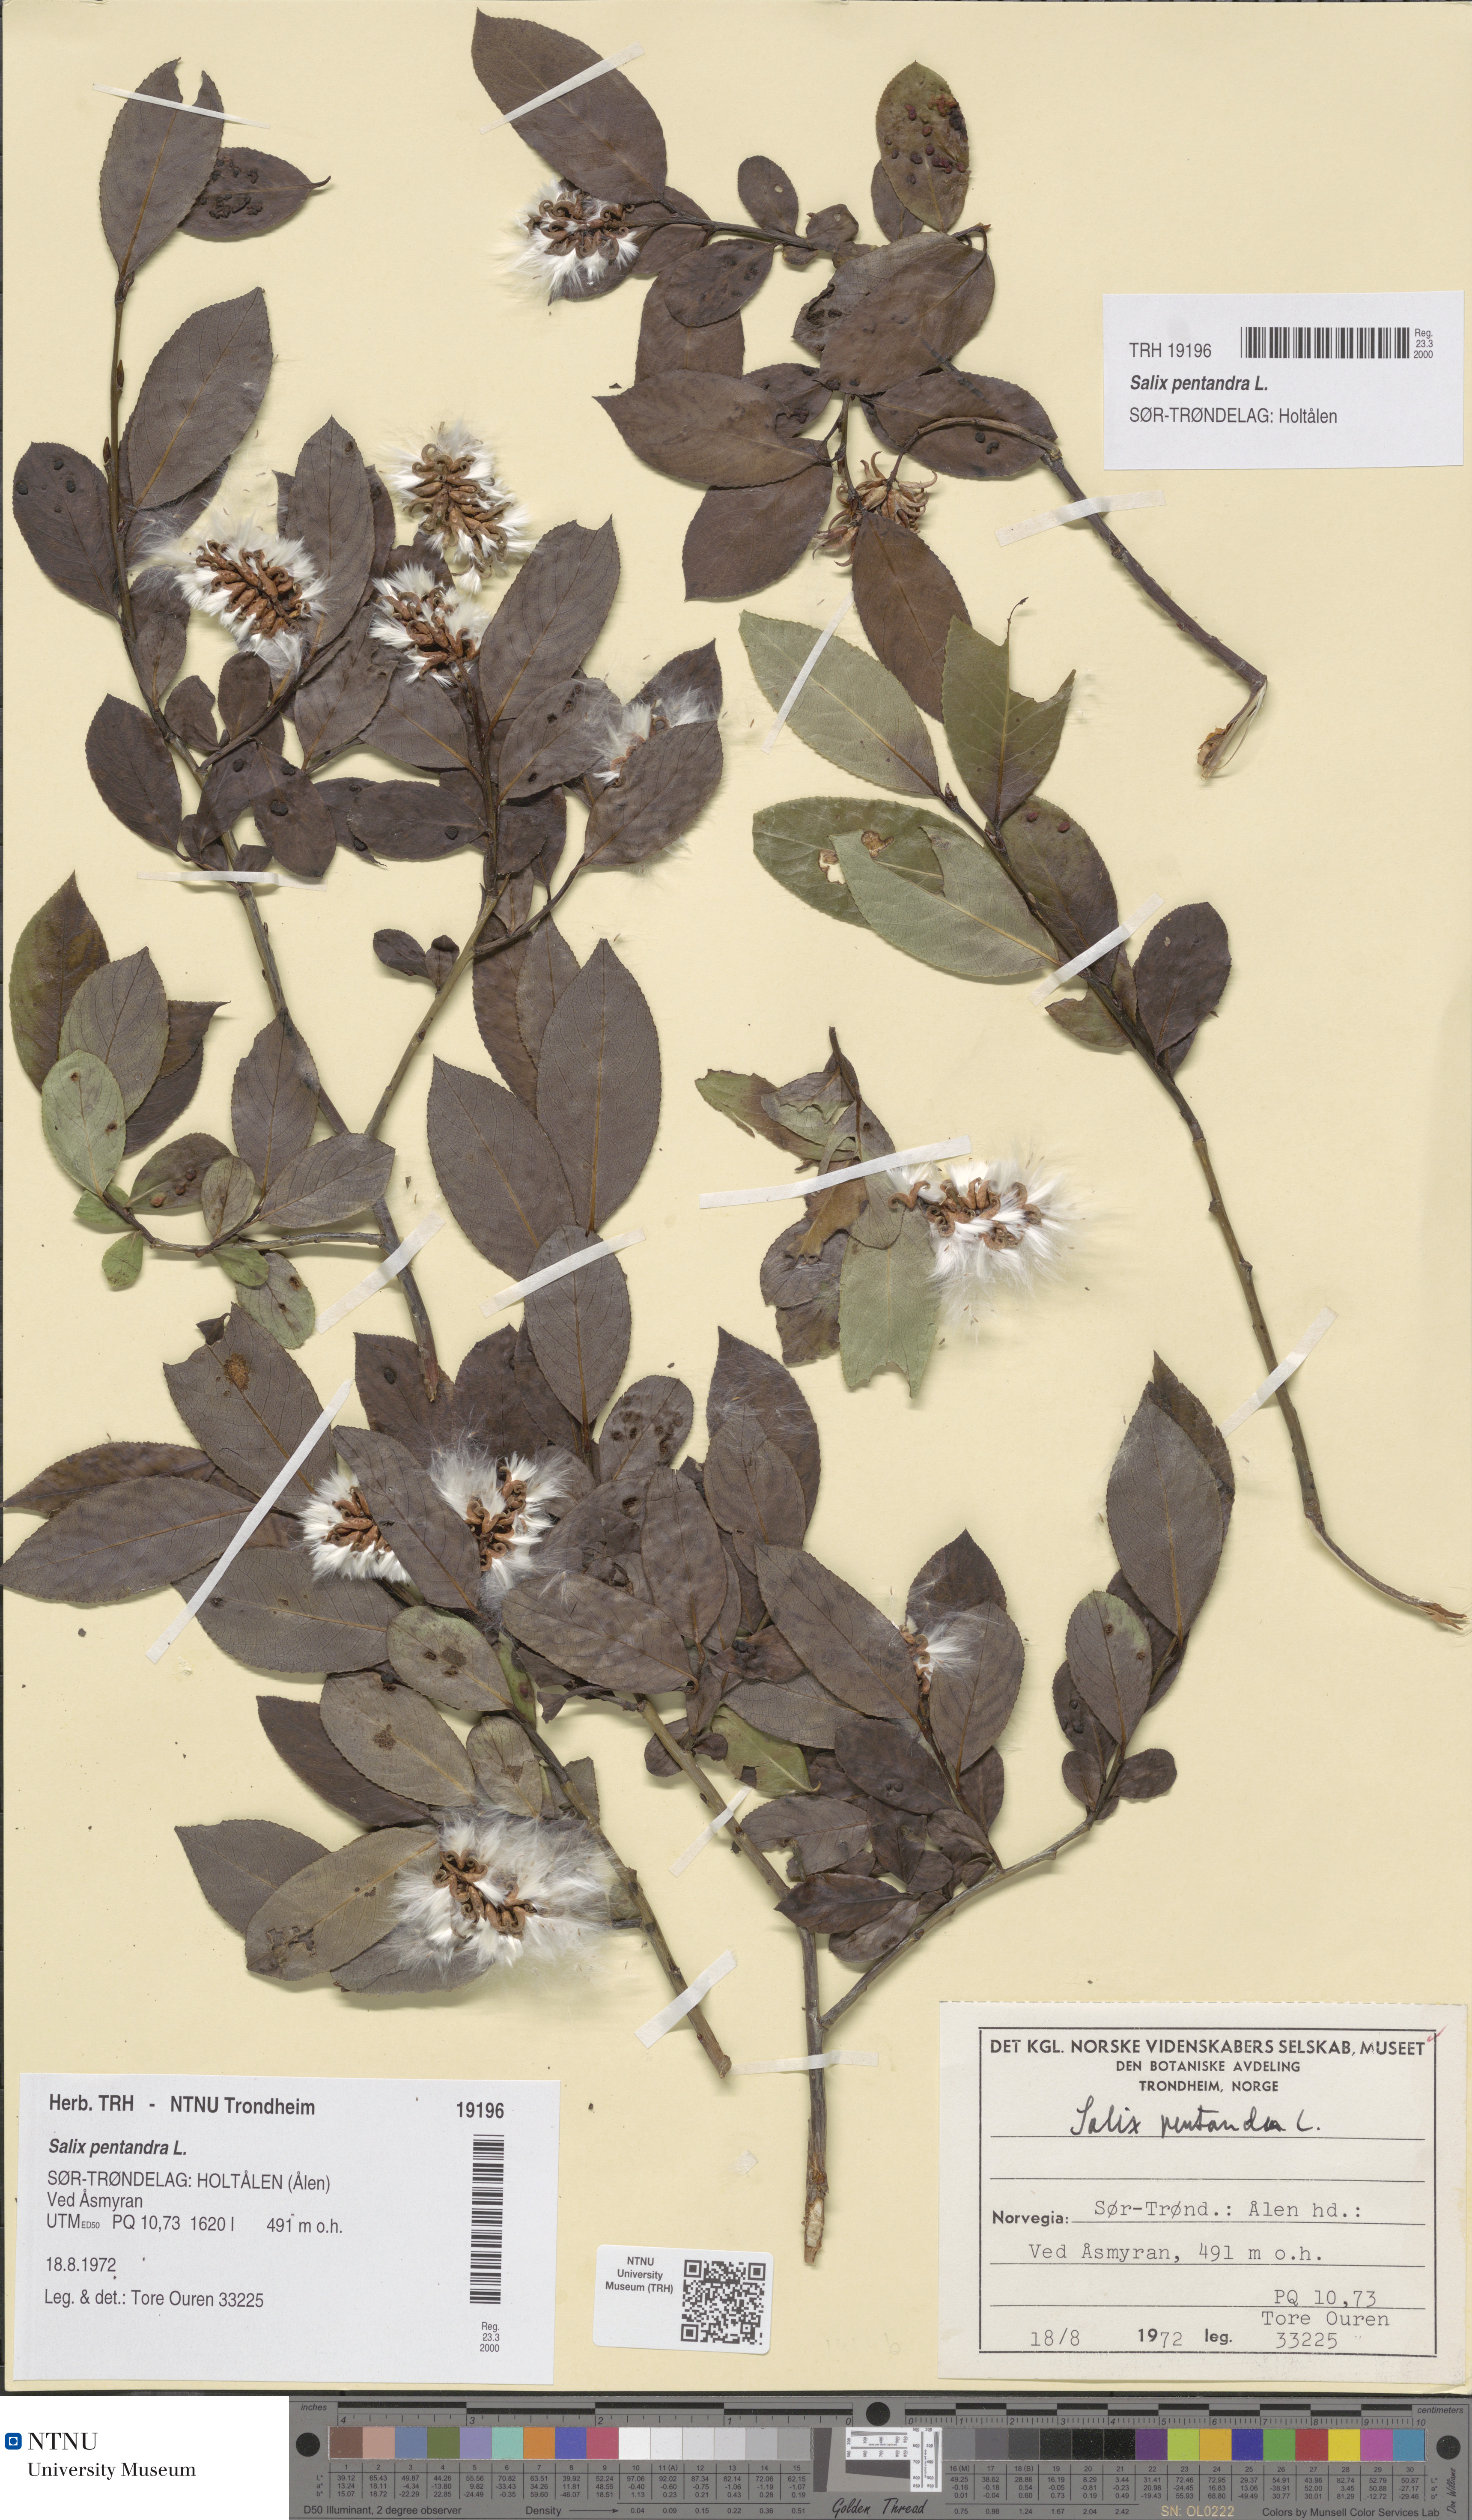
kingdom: Plantae
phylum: Tracheophyta
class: Magnoliopsida
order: Malpighiales
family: Salicaceae
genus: Salix
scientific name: Salix pentandra
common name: Bay willow
